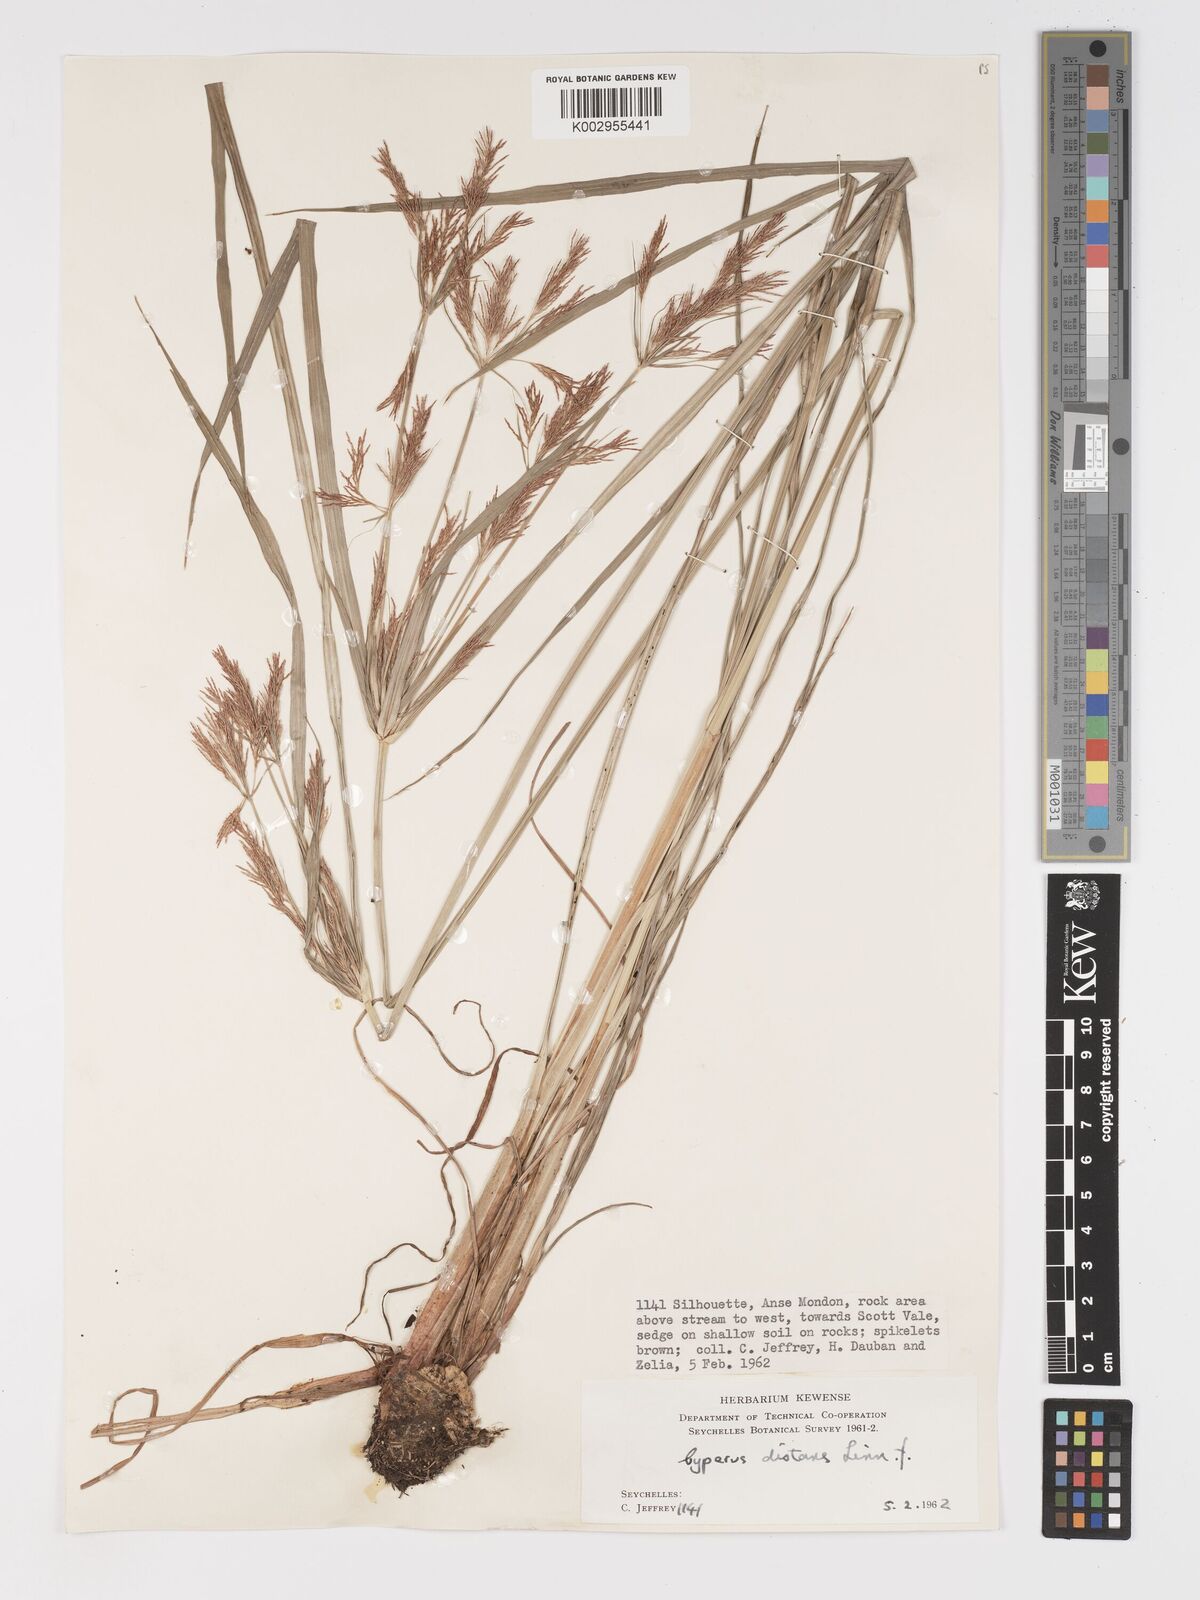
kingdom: Plantae
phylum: Tracheophyta
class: Liliopsida
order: Poales
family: Cyperaceae
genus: Cyperus
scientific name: Cyperus distans
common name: Slender cyperus
